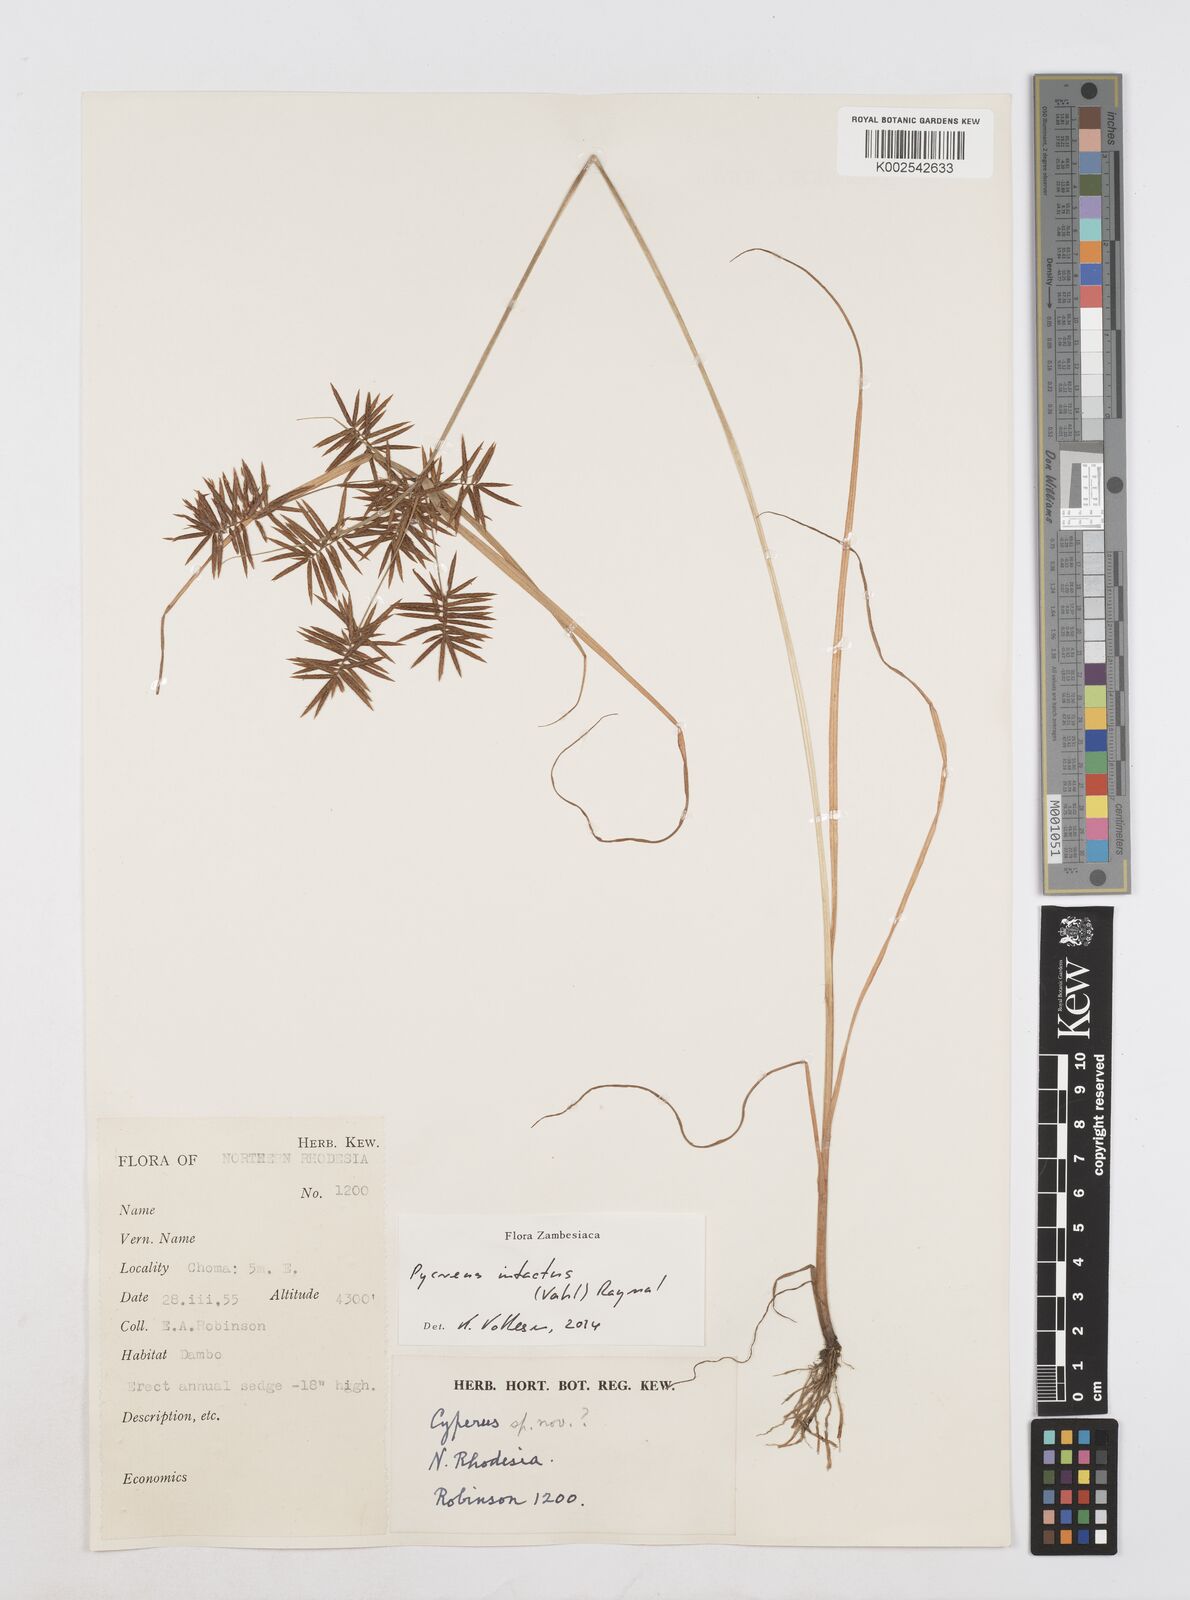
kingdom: Plantae
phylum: Tracheophyta
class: Liliopsida
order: Poales
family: Cyperaceae
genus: Cyperus
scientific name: Cyperus intactus
